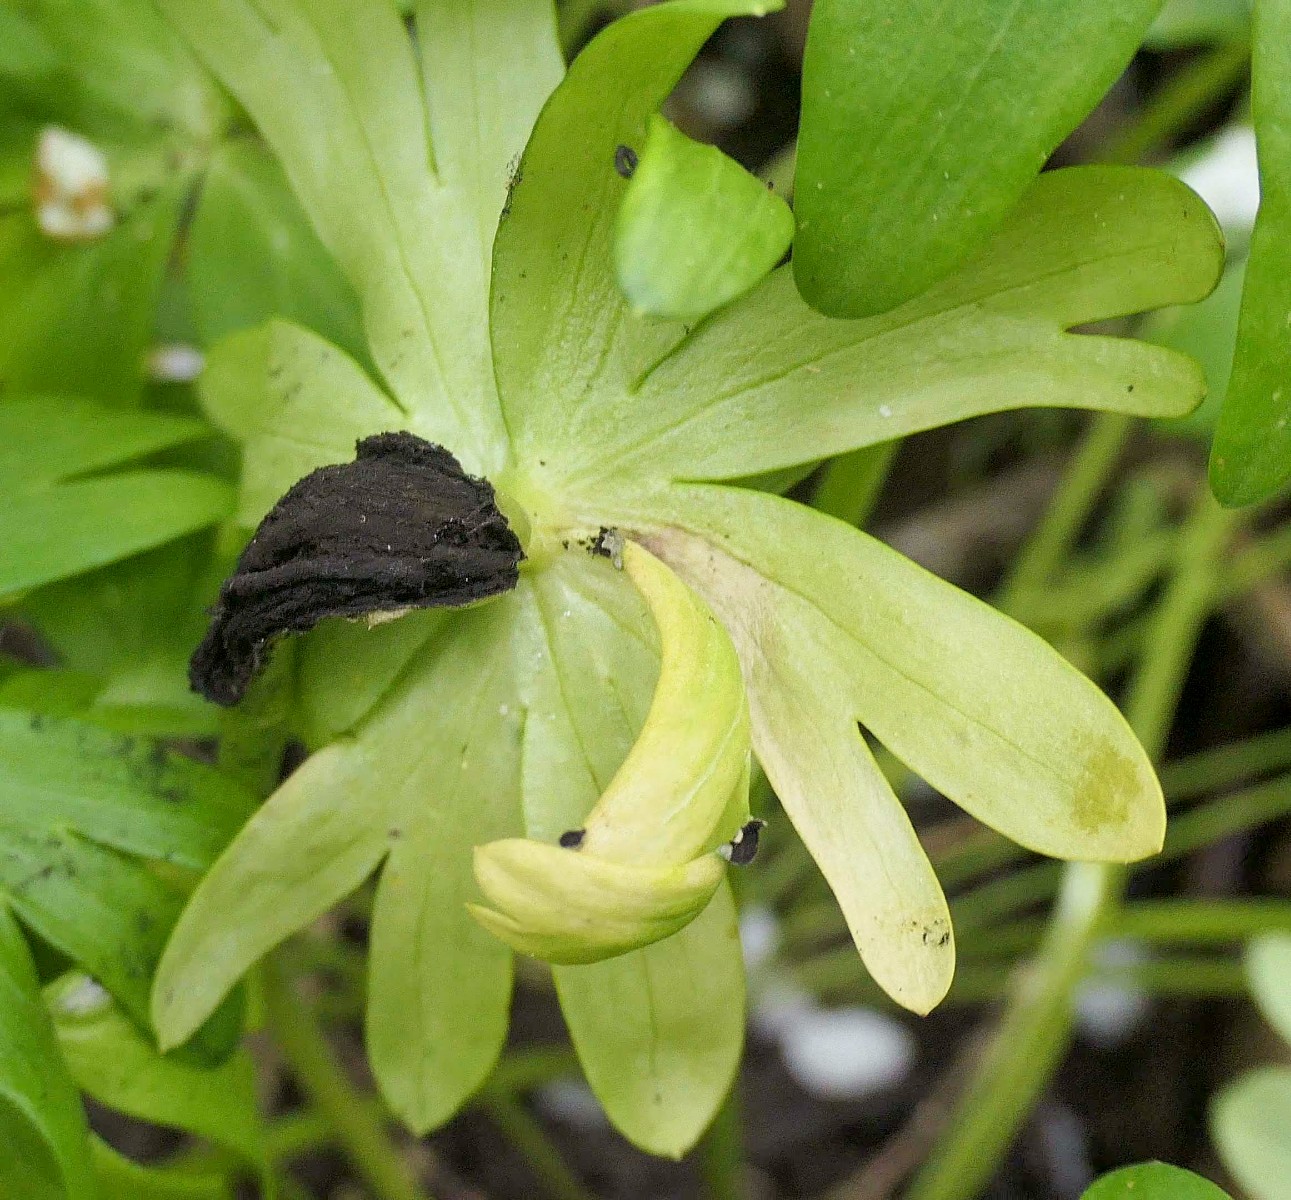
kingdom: Fungi
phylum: Basidiomycota
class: Ustilaginomycetes
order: Urocystidales
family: Urocystidaceae
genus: Urocystis
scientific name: Urocystis eranthidis
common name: erantis-brand
